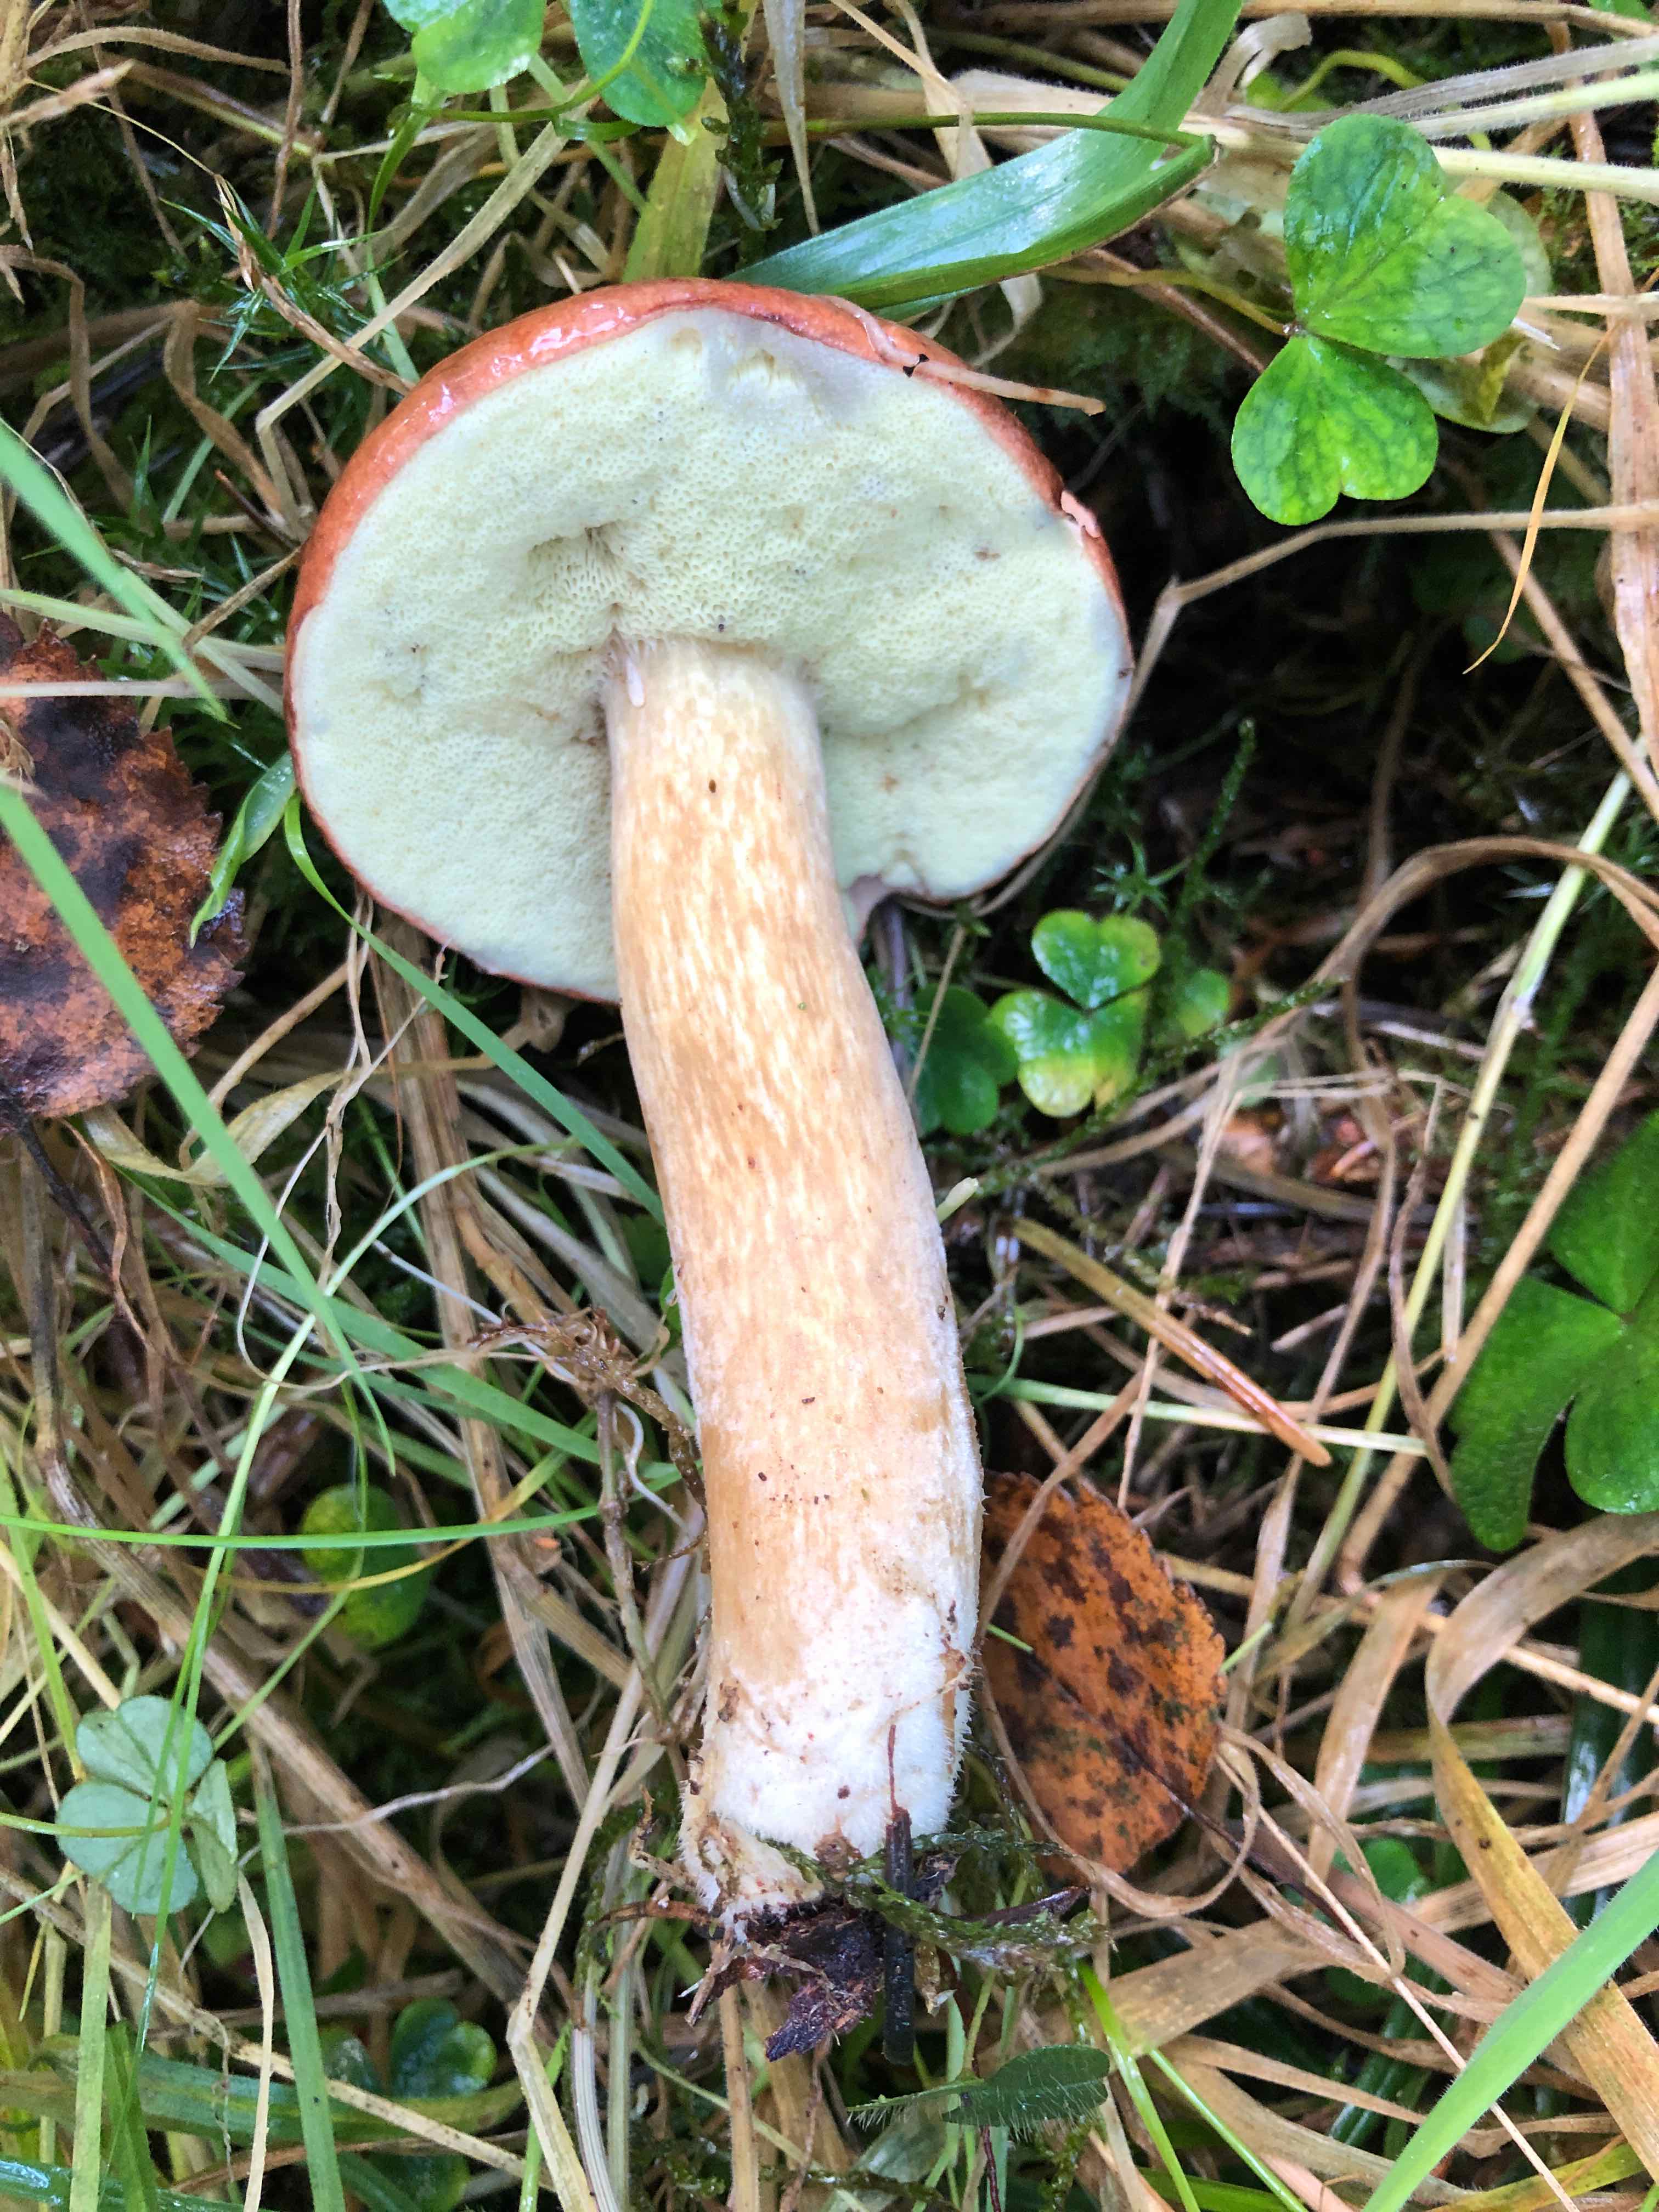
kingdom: Fungi
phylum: Basidiomycota
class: Agaricomycetes
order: Boletales
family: Boletaceae
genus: Imleria
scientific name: Imleria badia
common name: brunstokket rørhat
